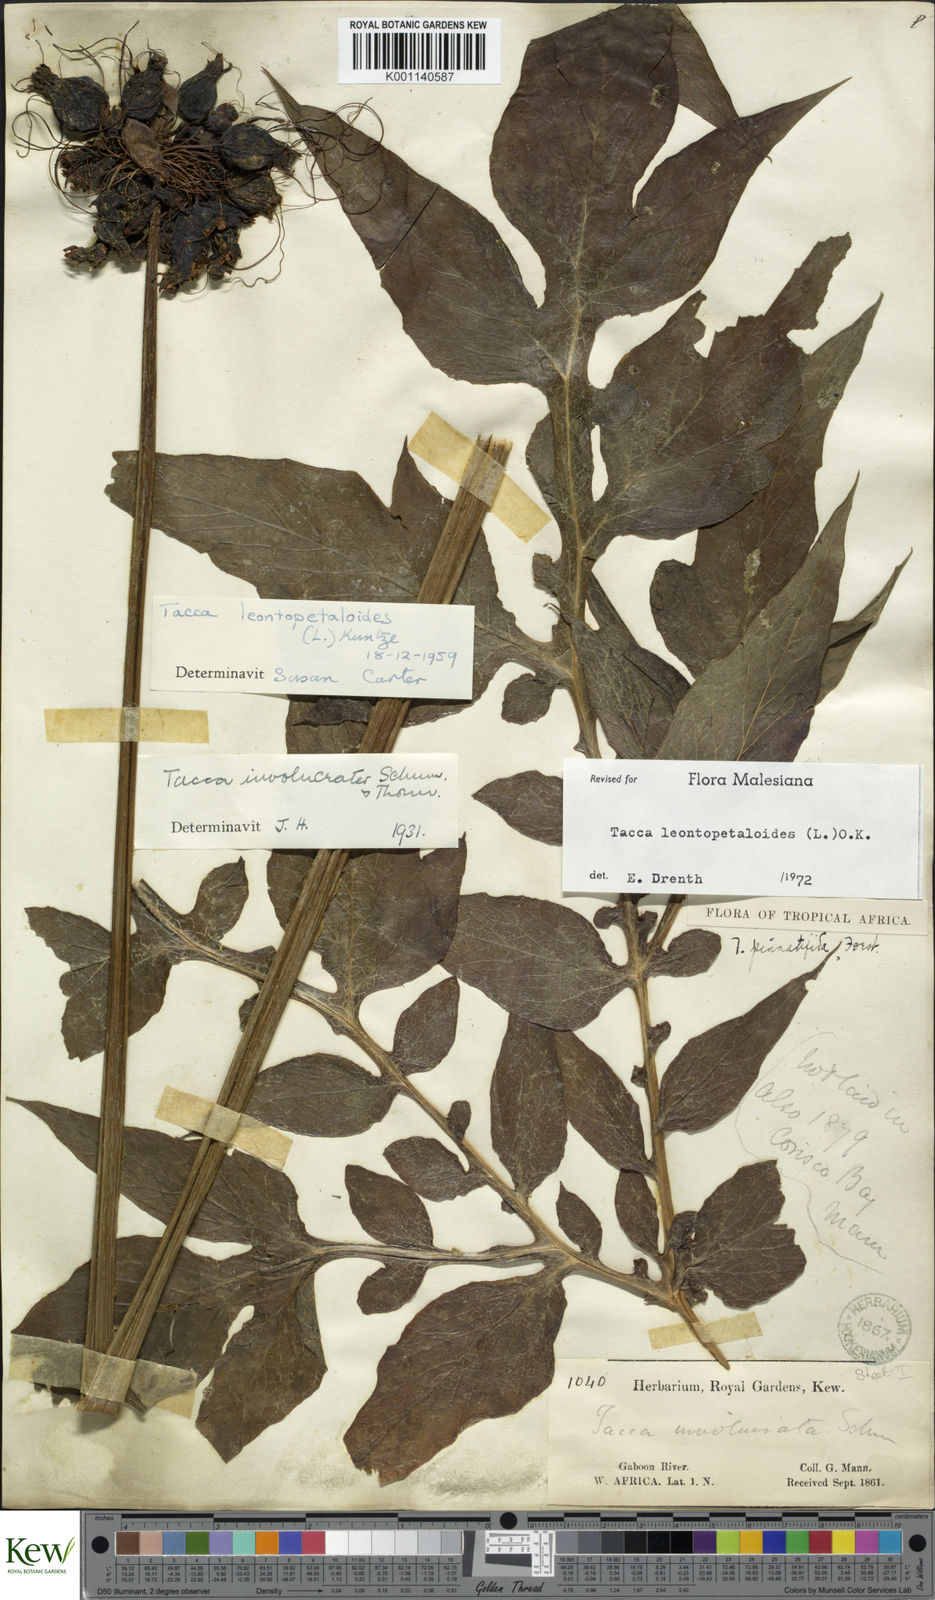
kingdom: Plantae
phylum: Tracheophyta
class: Liliopsida
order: Dioscoreales
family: Dioscoreaceae
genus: Tacca
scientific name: Tacca leontopetaloides
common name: Arrowroot
